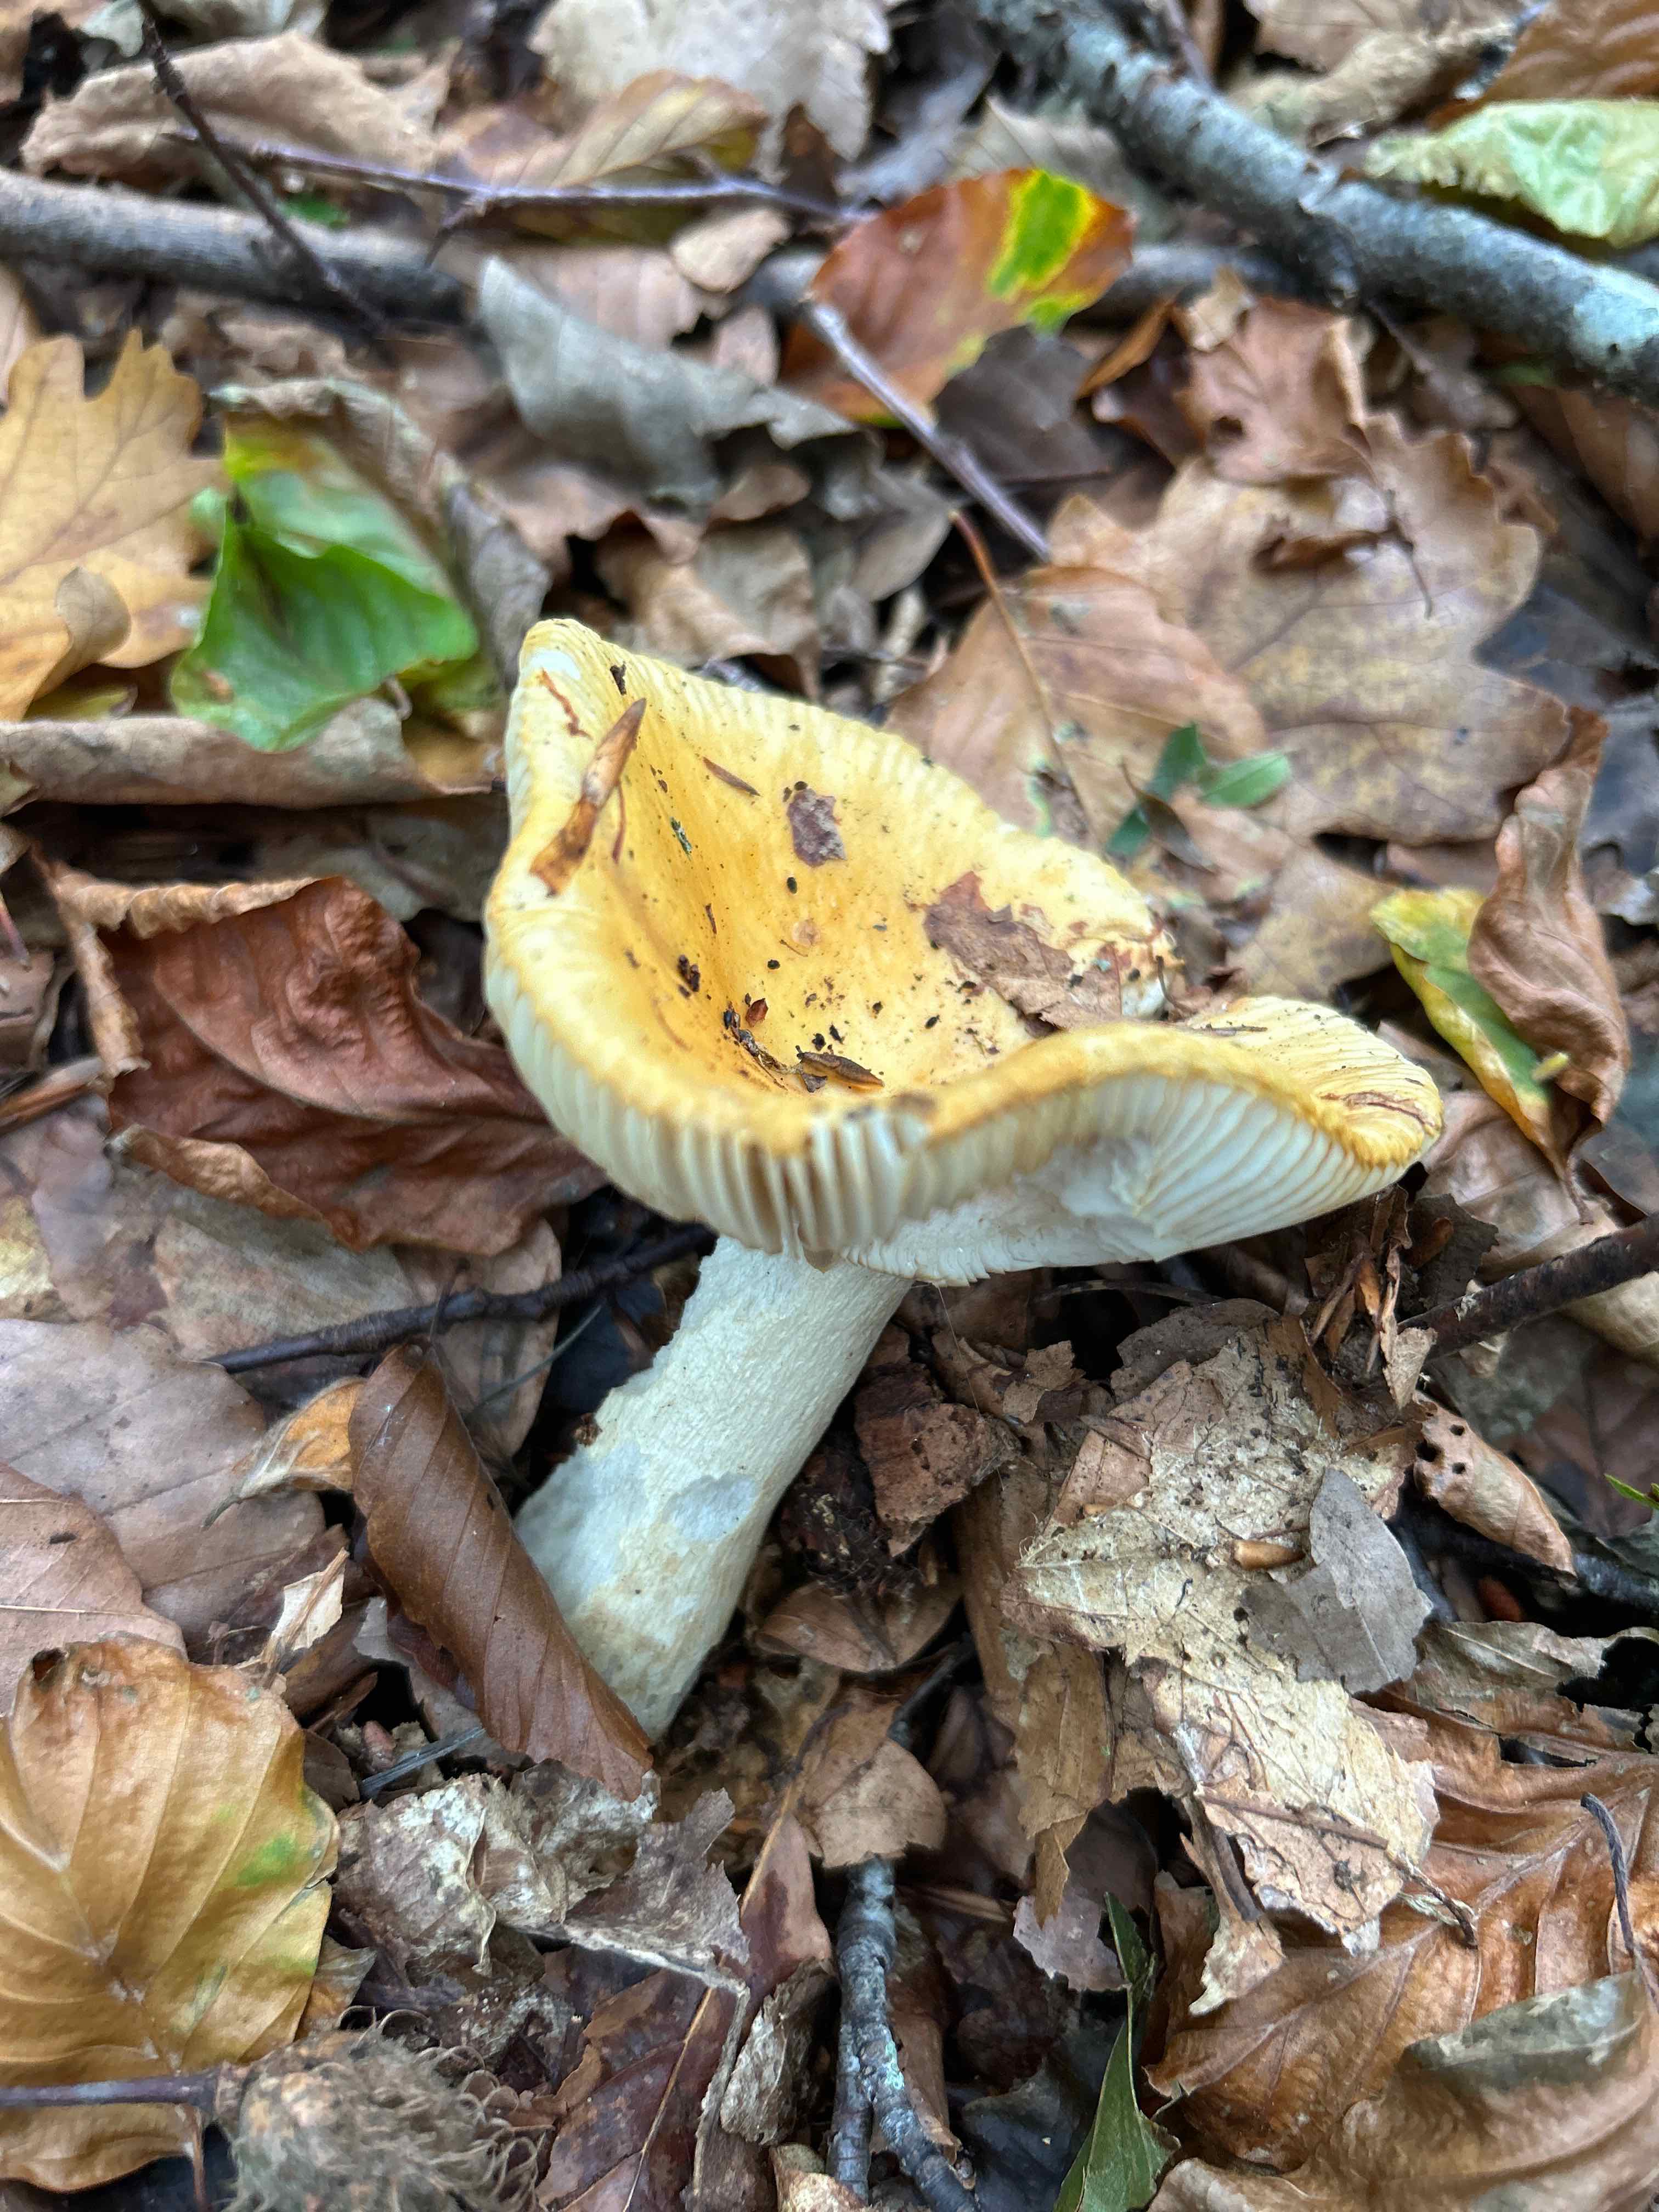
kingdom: Fungi
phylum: Basidiomycota
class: Agaricomycetes
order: Russulales
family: Russulaceae
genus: Russula
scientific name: Russula
